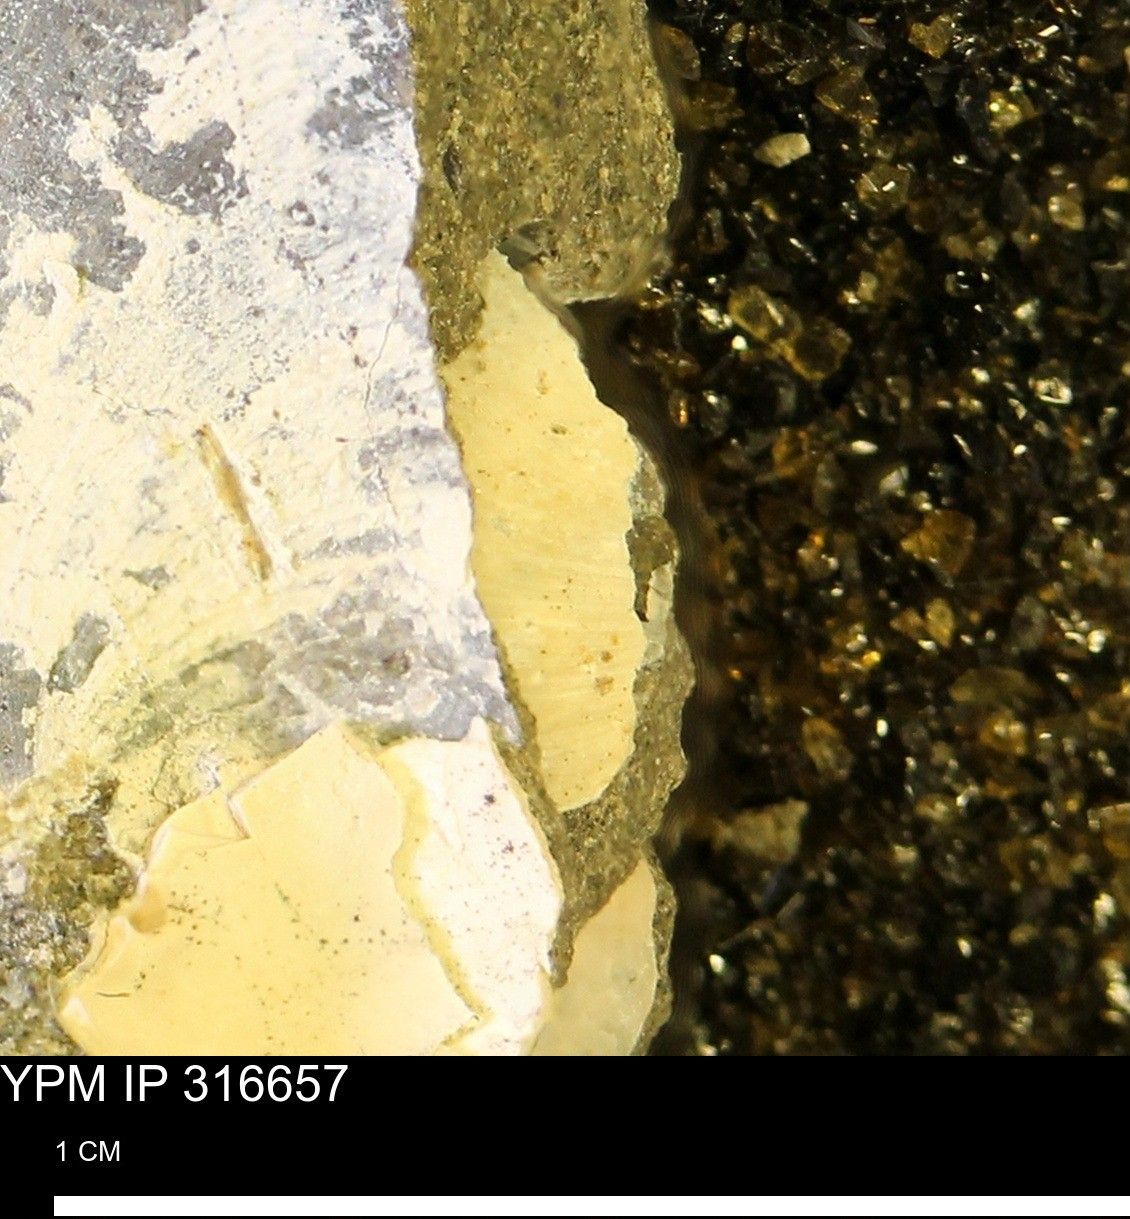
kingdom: Animalia
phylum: Mollusca
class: Bivalvia
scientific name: Bivalvia
